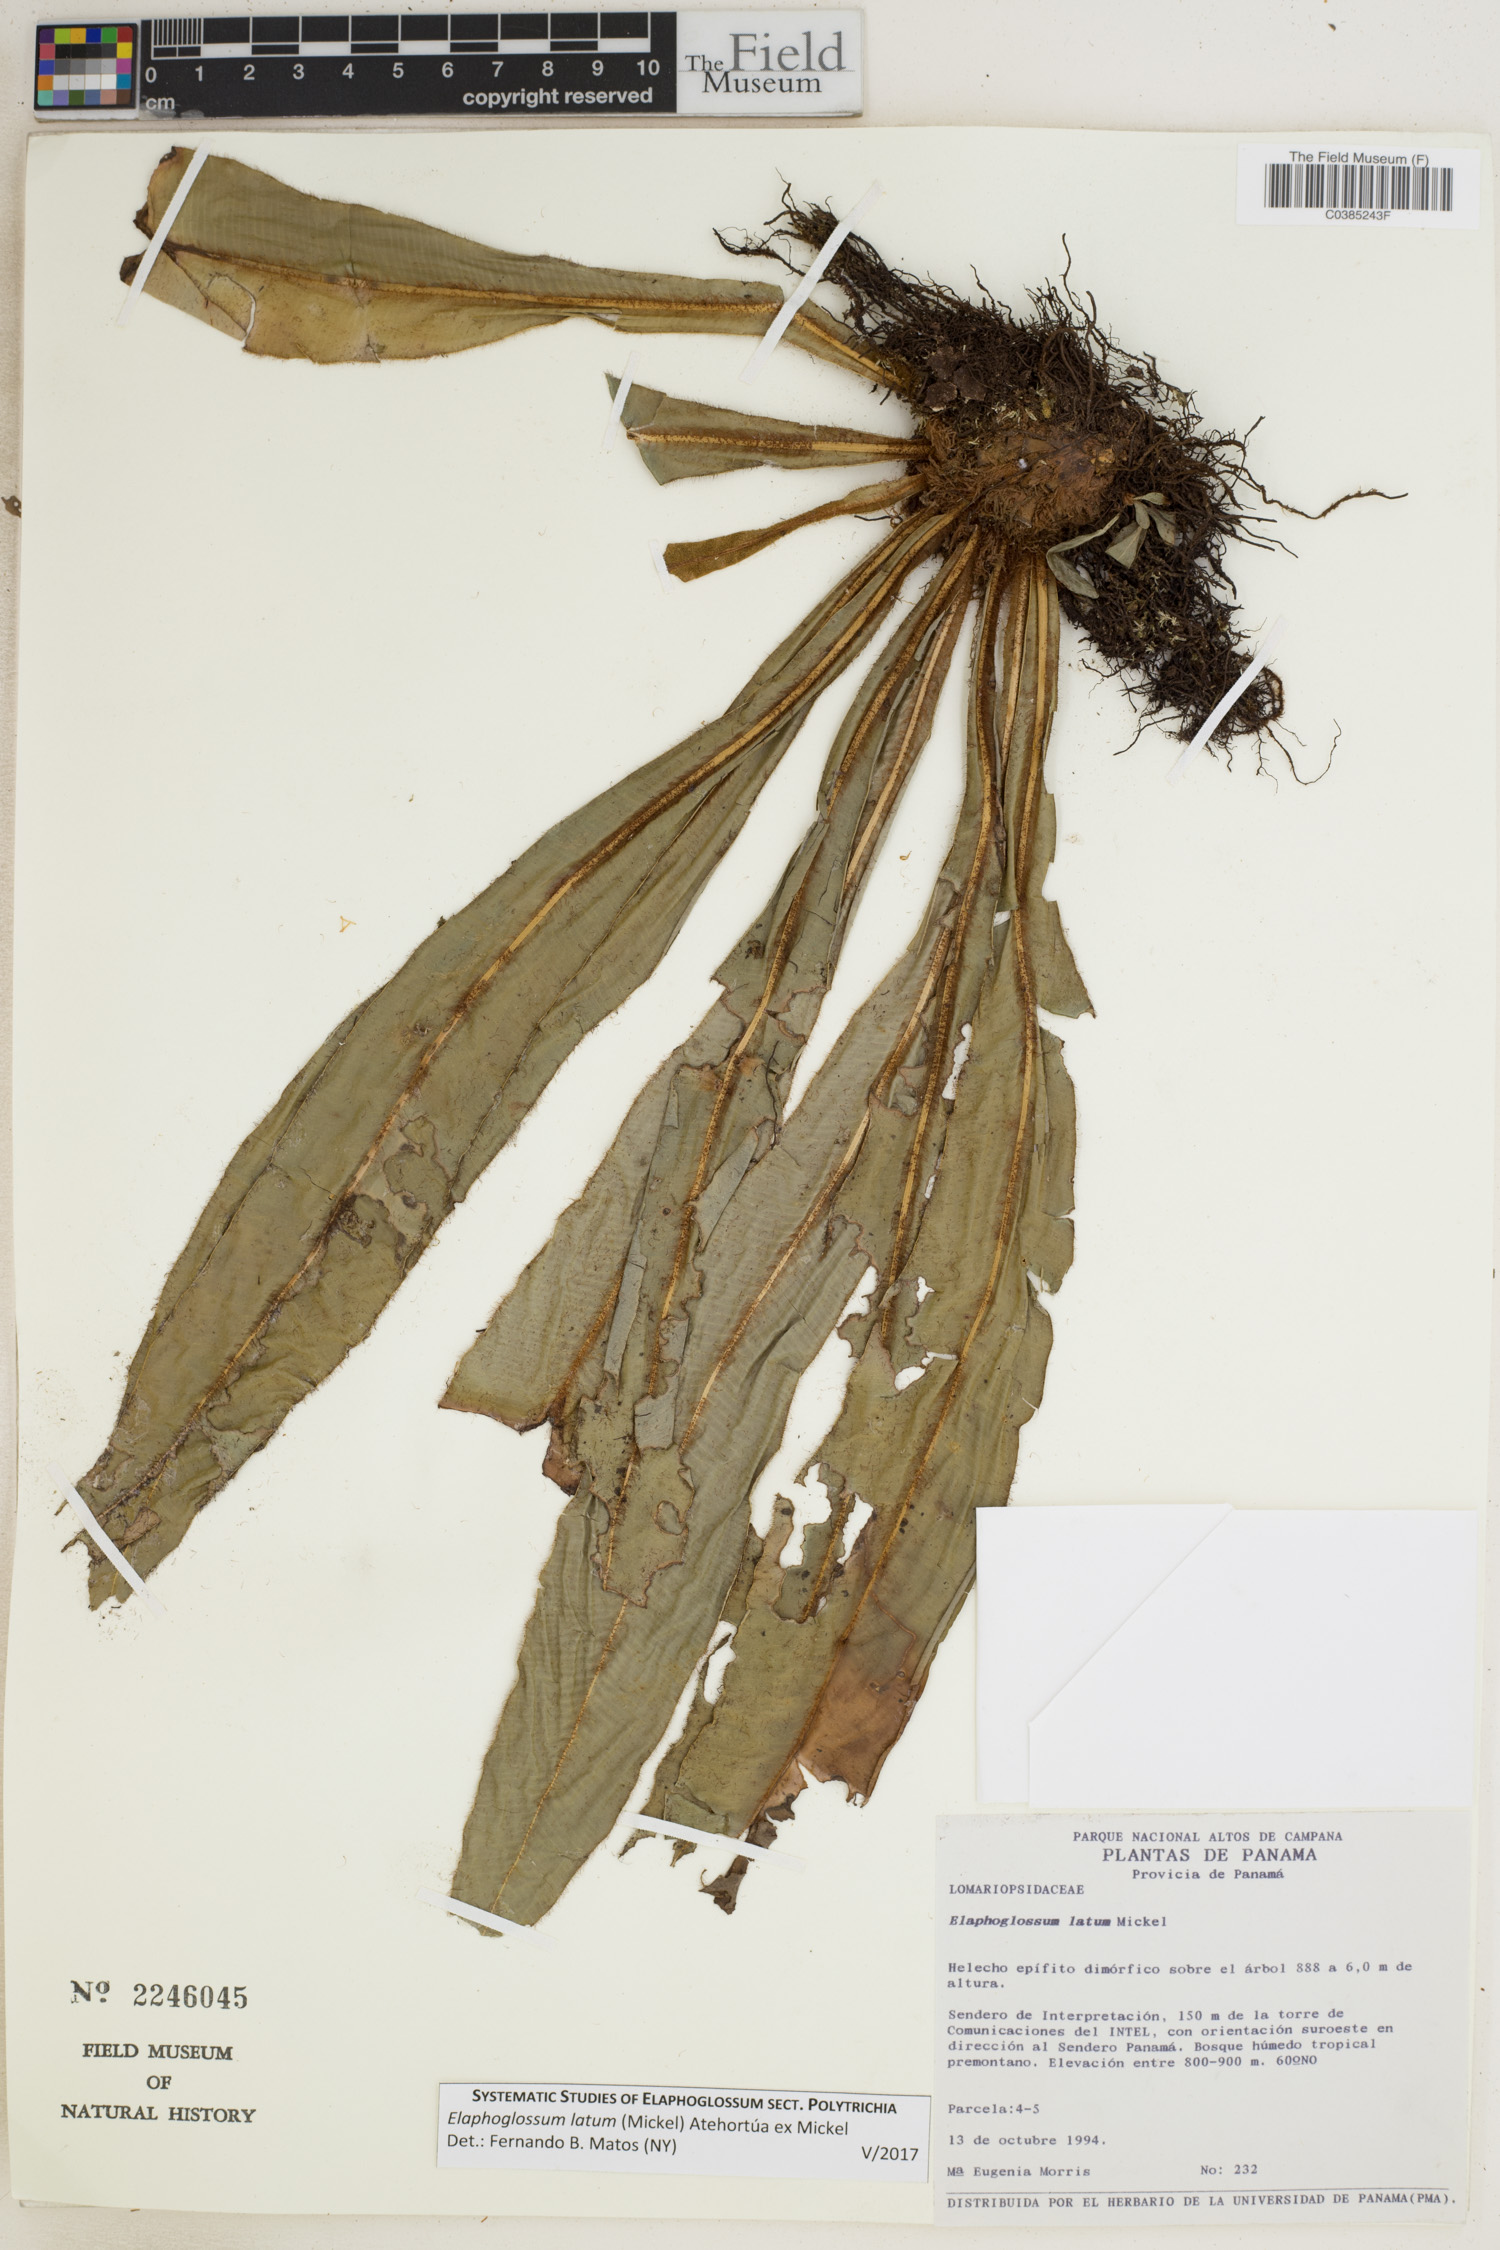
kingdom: Plantae
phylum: Tracheophyta
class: Polypodiopsida
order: Polypodiales
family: Dryopteridaceae
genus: Elaphoglossum
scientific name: Elaphoglossum latum
